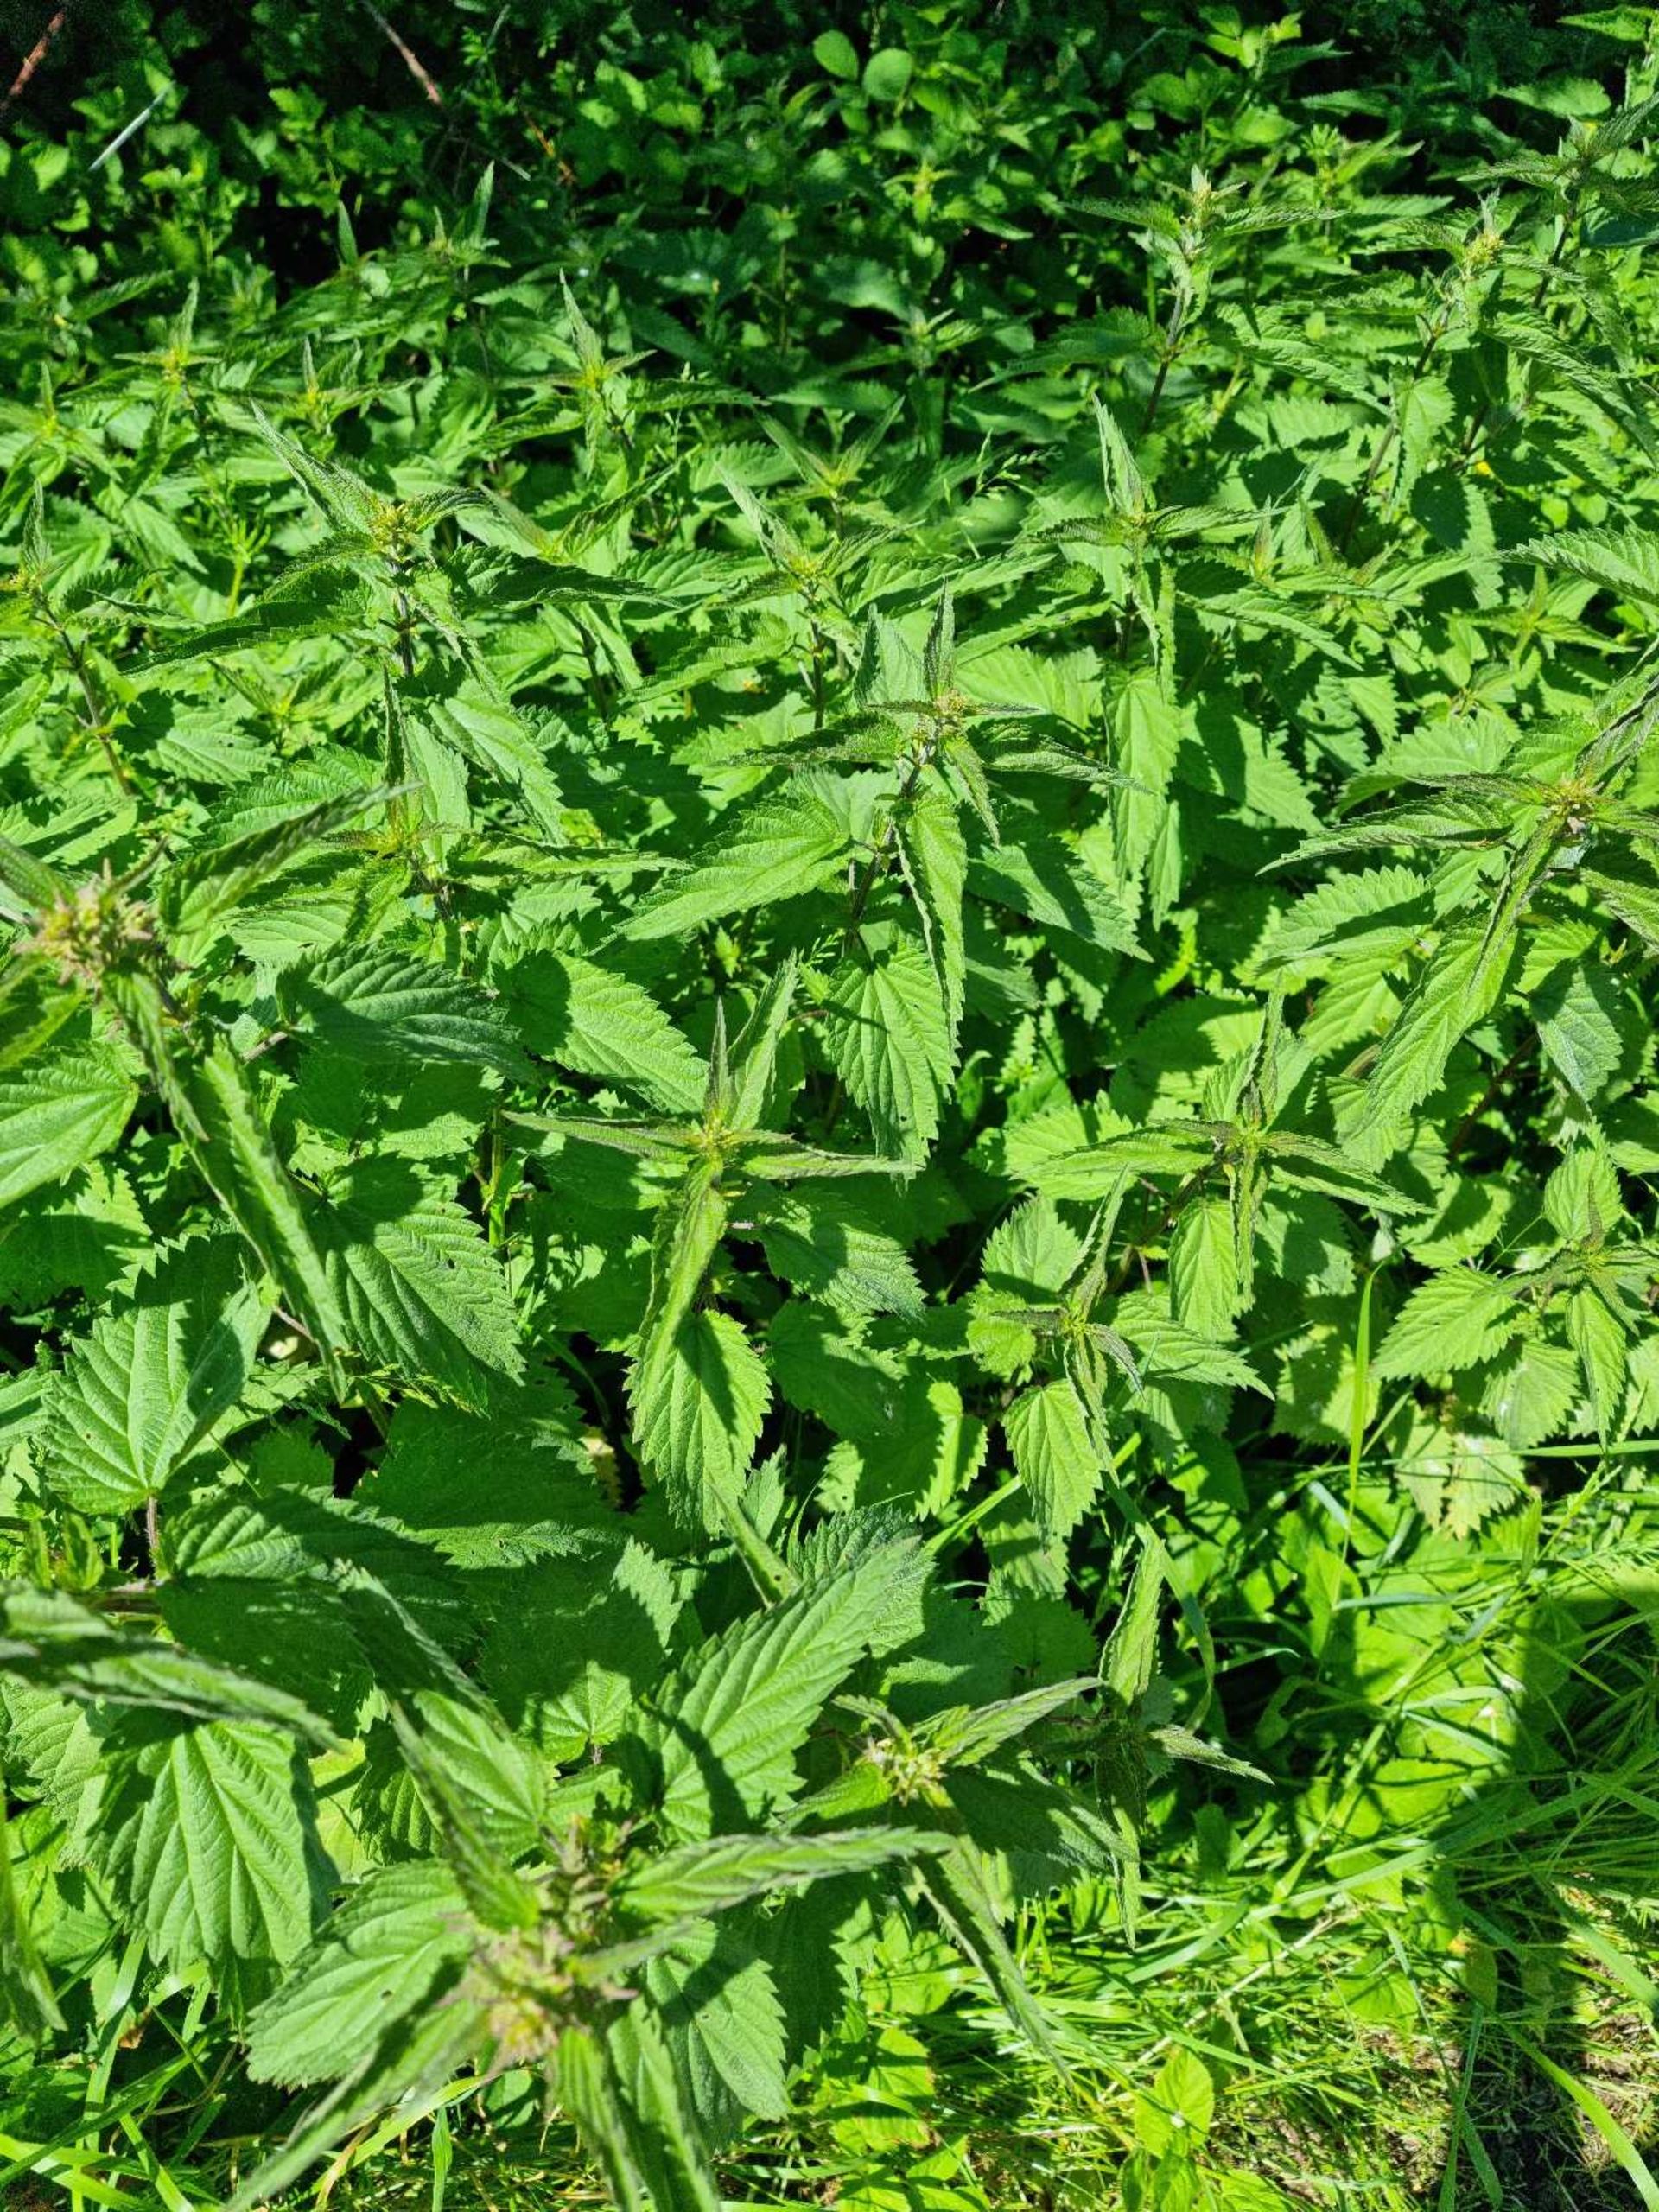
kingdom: Plantae
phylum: Tracheophyta
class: Magnoliopsida
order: Rosales
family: Urticaceae
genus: Urtica
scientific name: Urtica dioica
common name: Stor nælde
